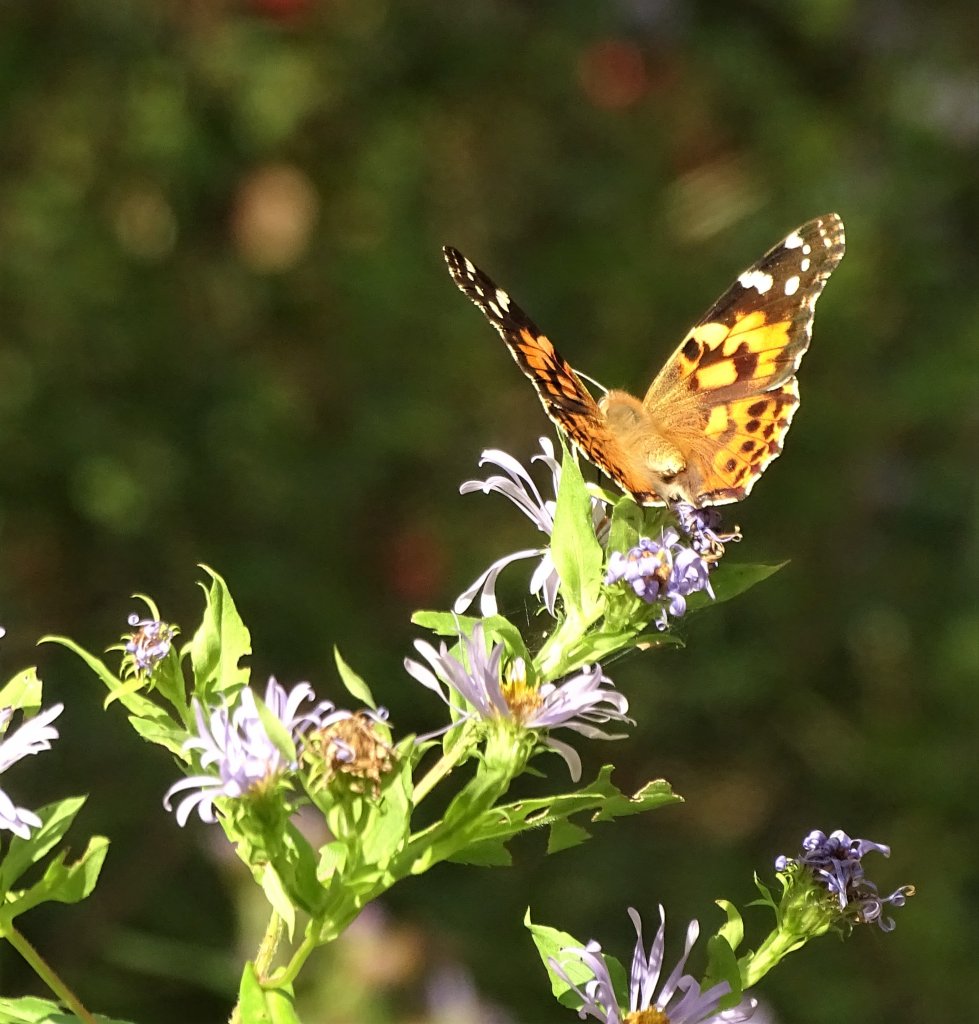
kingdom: Animalia
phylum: Arthropoda
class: Insecta
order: Lepidoptera
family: Nymphalidae
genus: Vanessa
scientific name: Vanessa cardui
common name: Painted Lady
